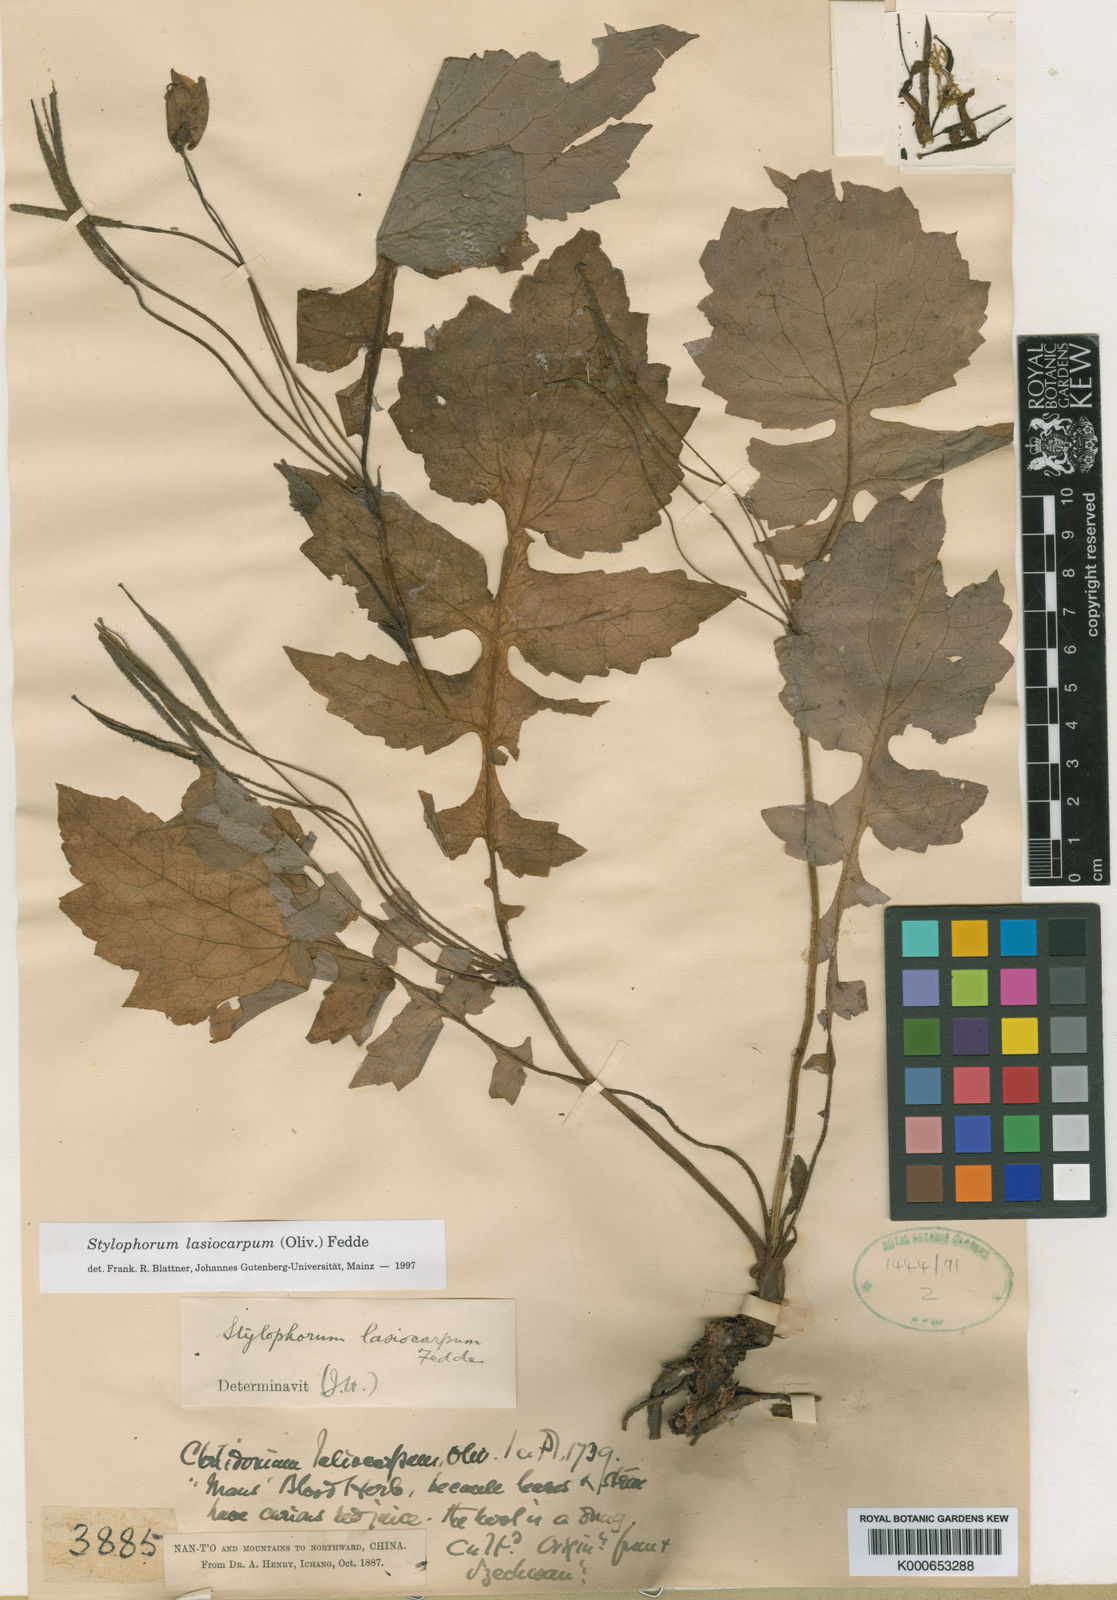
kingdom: Plantae
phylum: Tracheophyta
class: Magnoliopsida
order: Ranunculales
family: Papaveraceae
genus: Stylophorum
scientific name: Stylophorum lasiocarpum
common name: Chinese celandine-poppy
